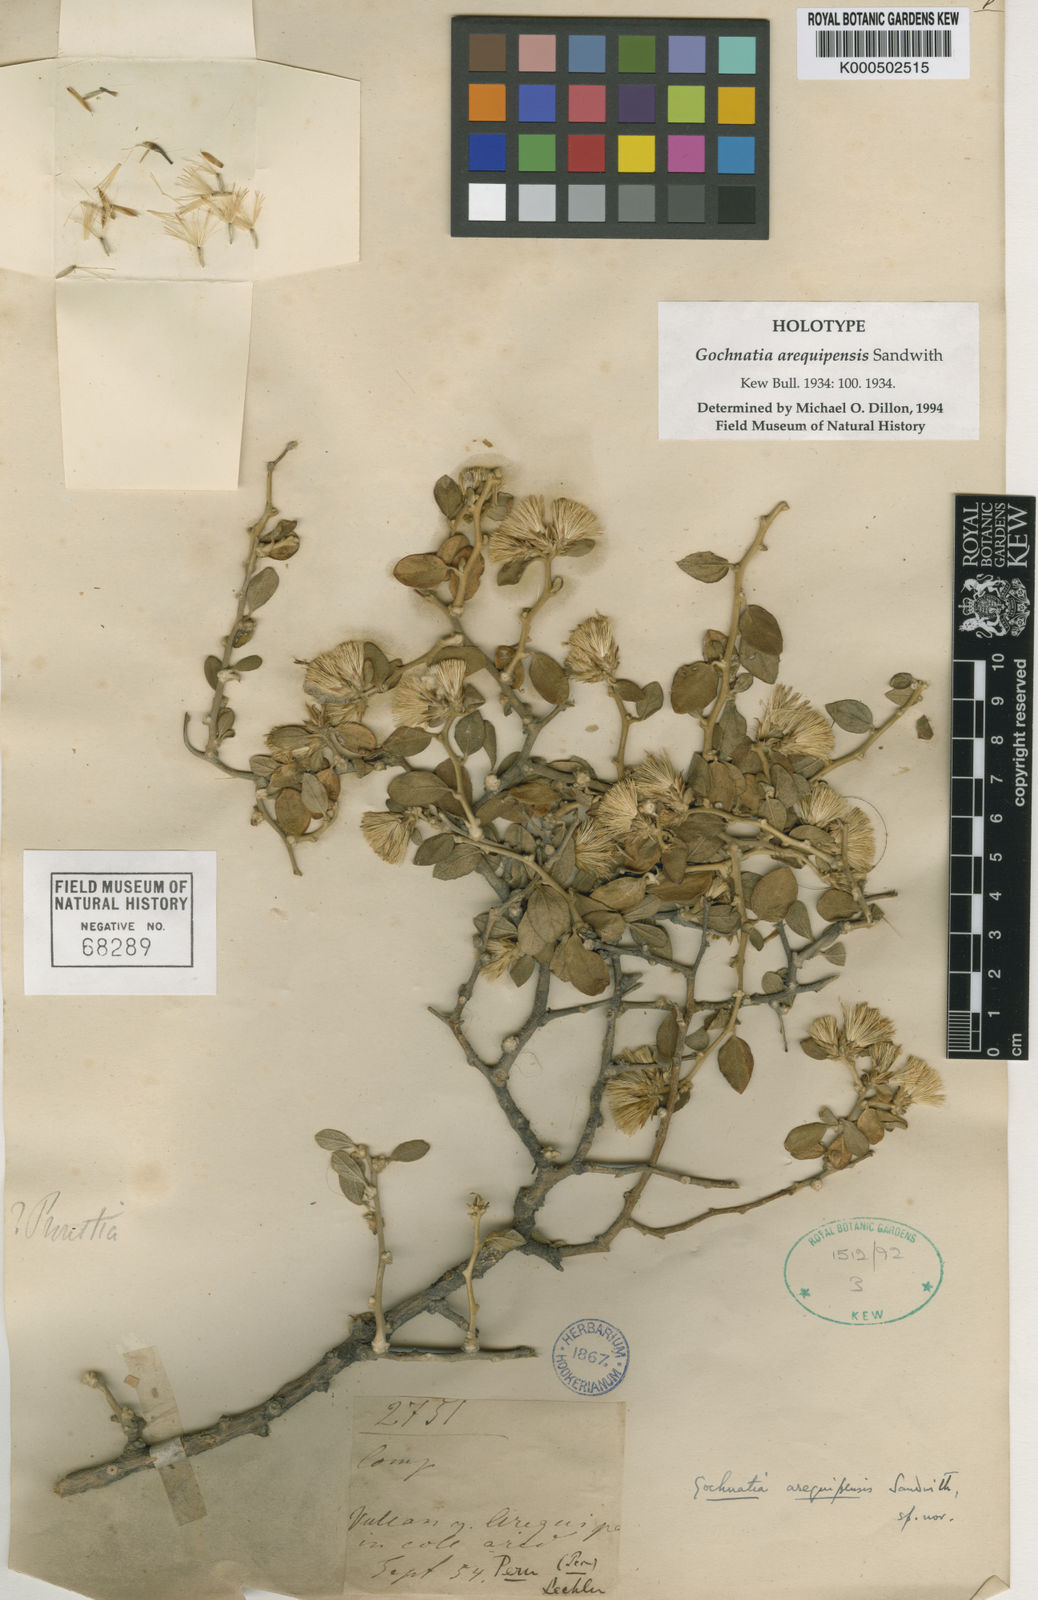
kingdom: Plantae
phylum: Tracheophyta
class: Magnoliopsida
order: Asterales
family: Asteraceae
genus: Gochnatia
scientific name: Gochnatia arequipensis
